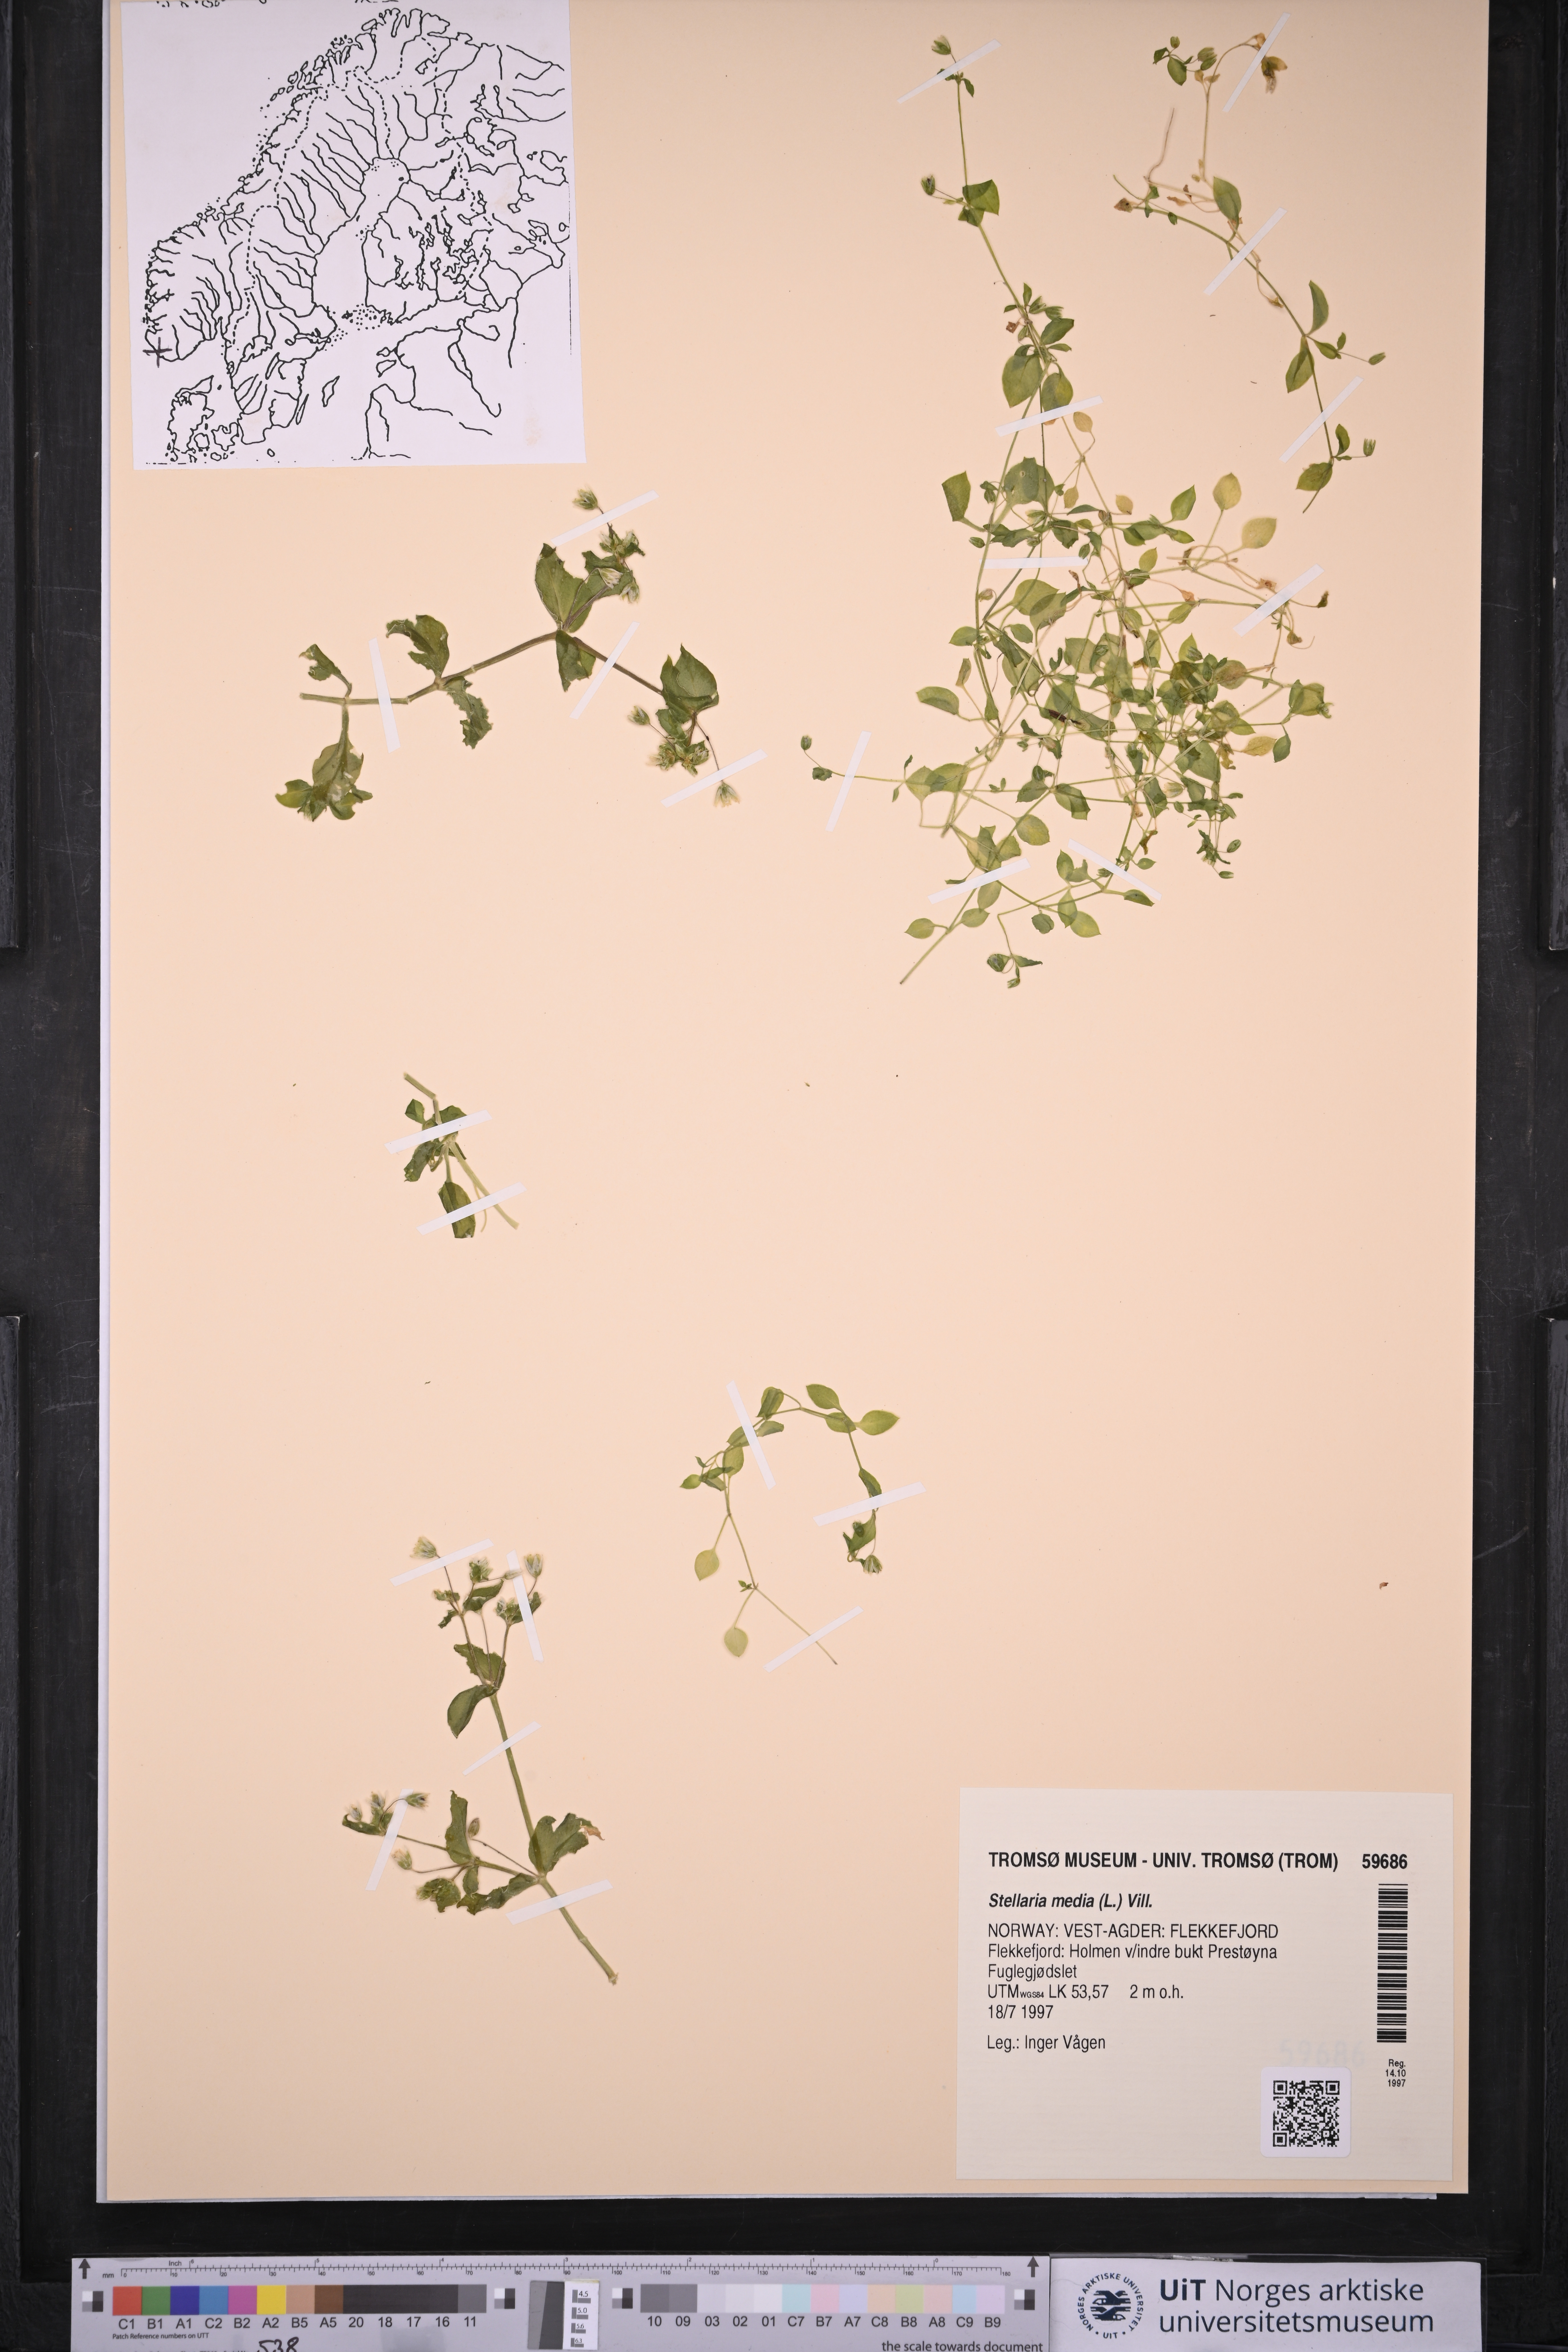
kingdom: Plantae
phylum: Tracheophyta
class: Magnoliopsida
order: Caryophyllales
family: Caryophyllaceae
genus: Stellaria
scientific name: Stellaria media
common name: Common chickweed
